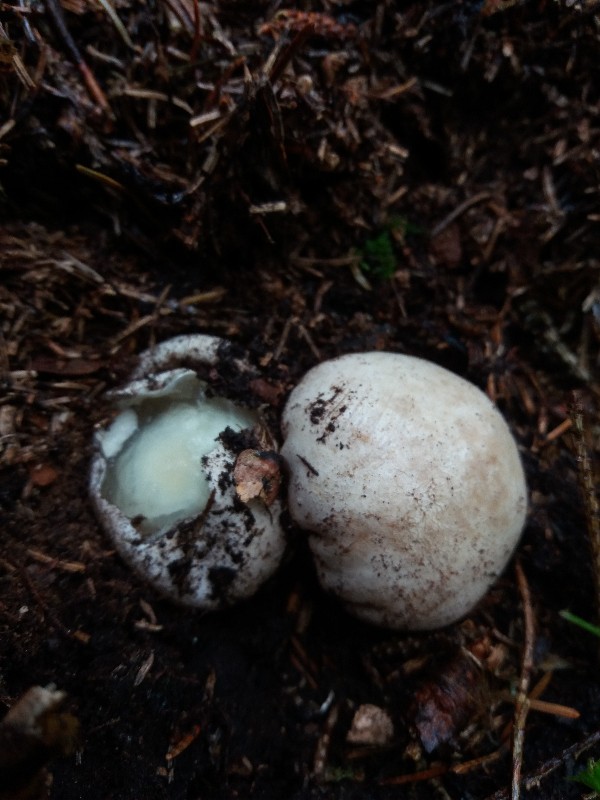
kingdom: Fungi
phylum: Basidiomycota
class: Agaricomycetes
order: Phallales
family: Phallaceae
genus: Phallus
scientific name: Phallus impudicus
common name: almindelig stinksvamp
